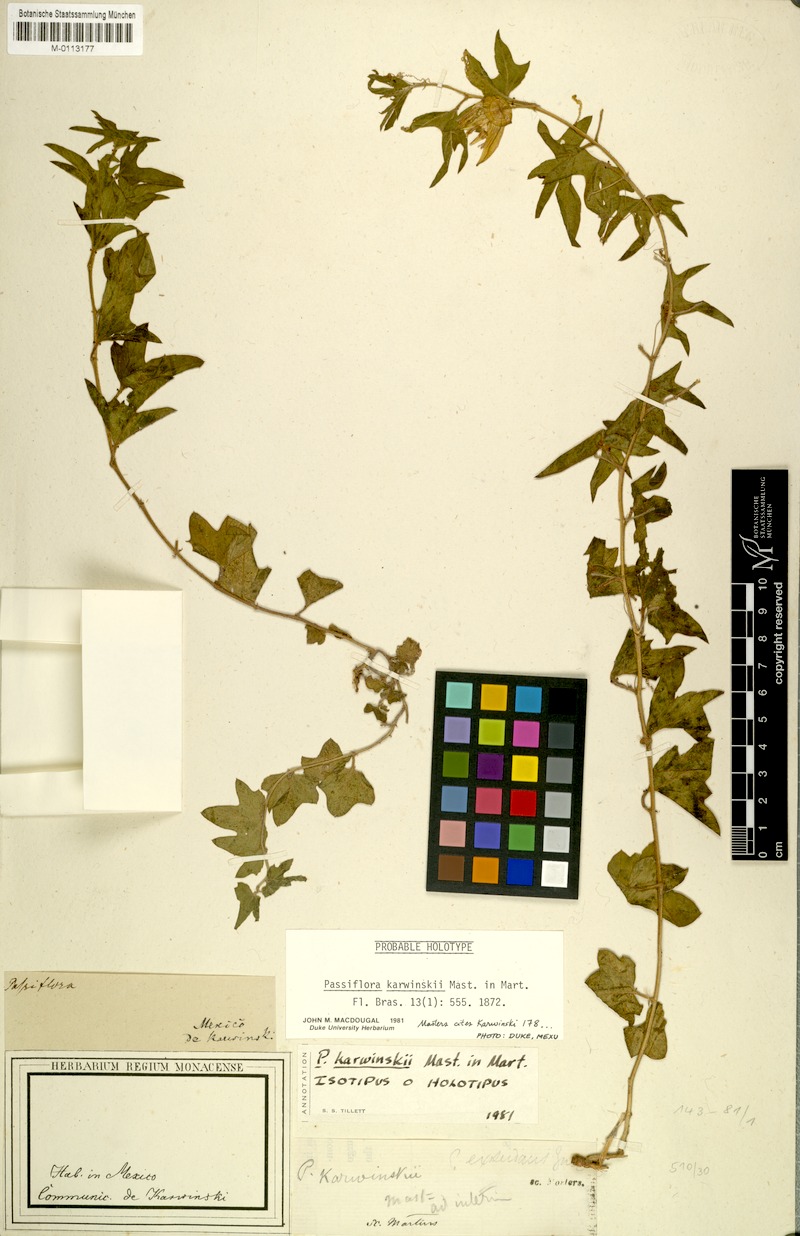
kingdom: Plantae
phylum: Tracheophyta
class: Magnoliopsida
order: Malpighiales
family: Passifloraceae
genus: Passiflora
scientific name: Passiflora karwinskii
